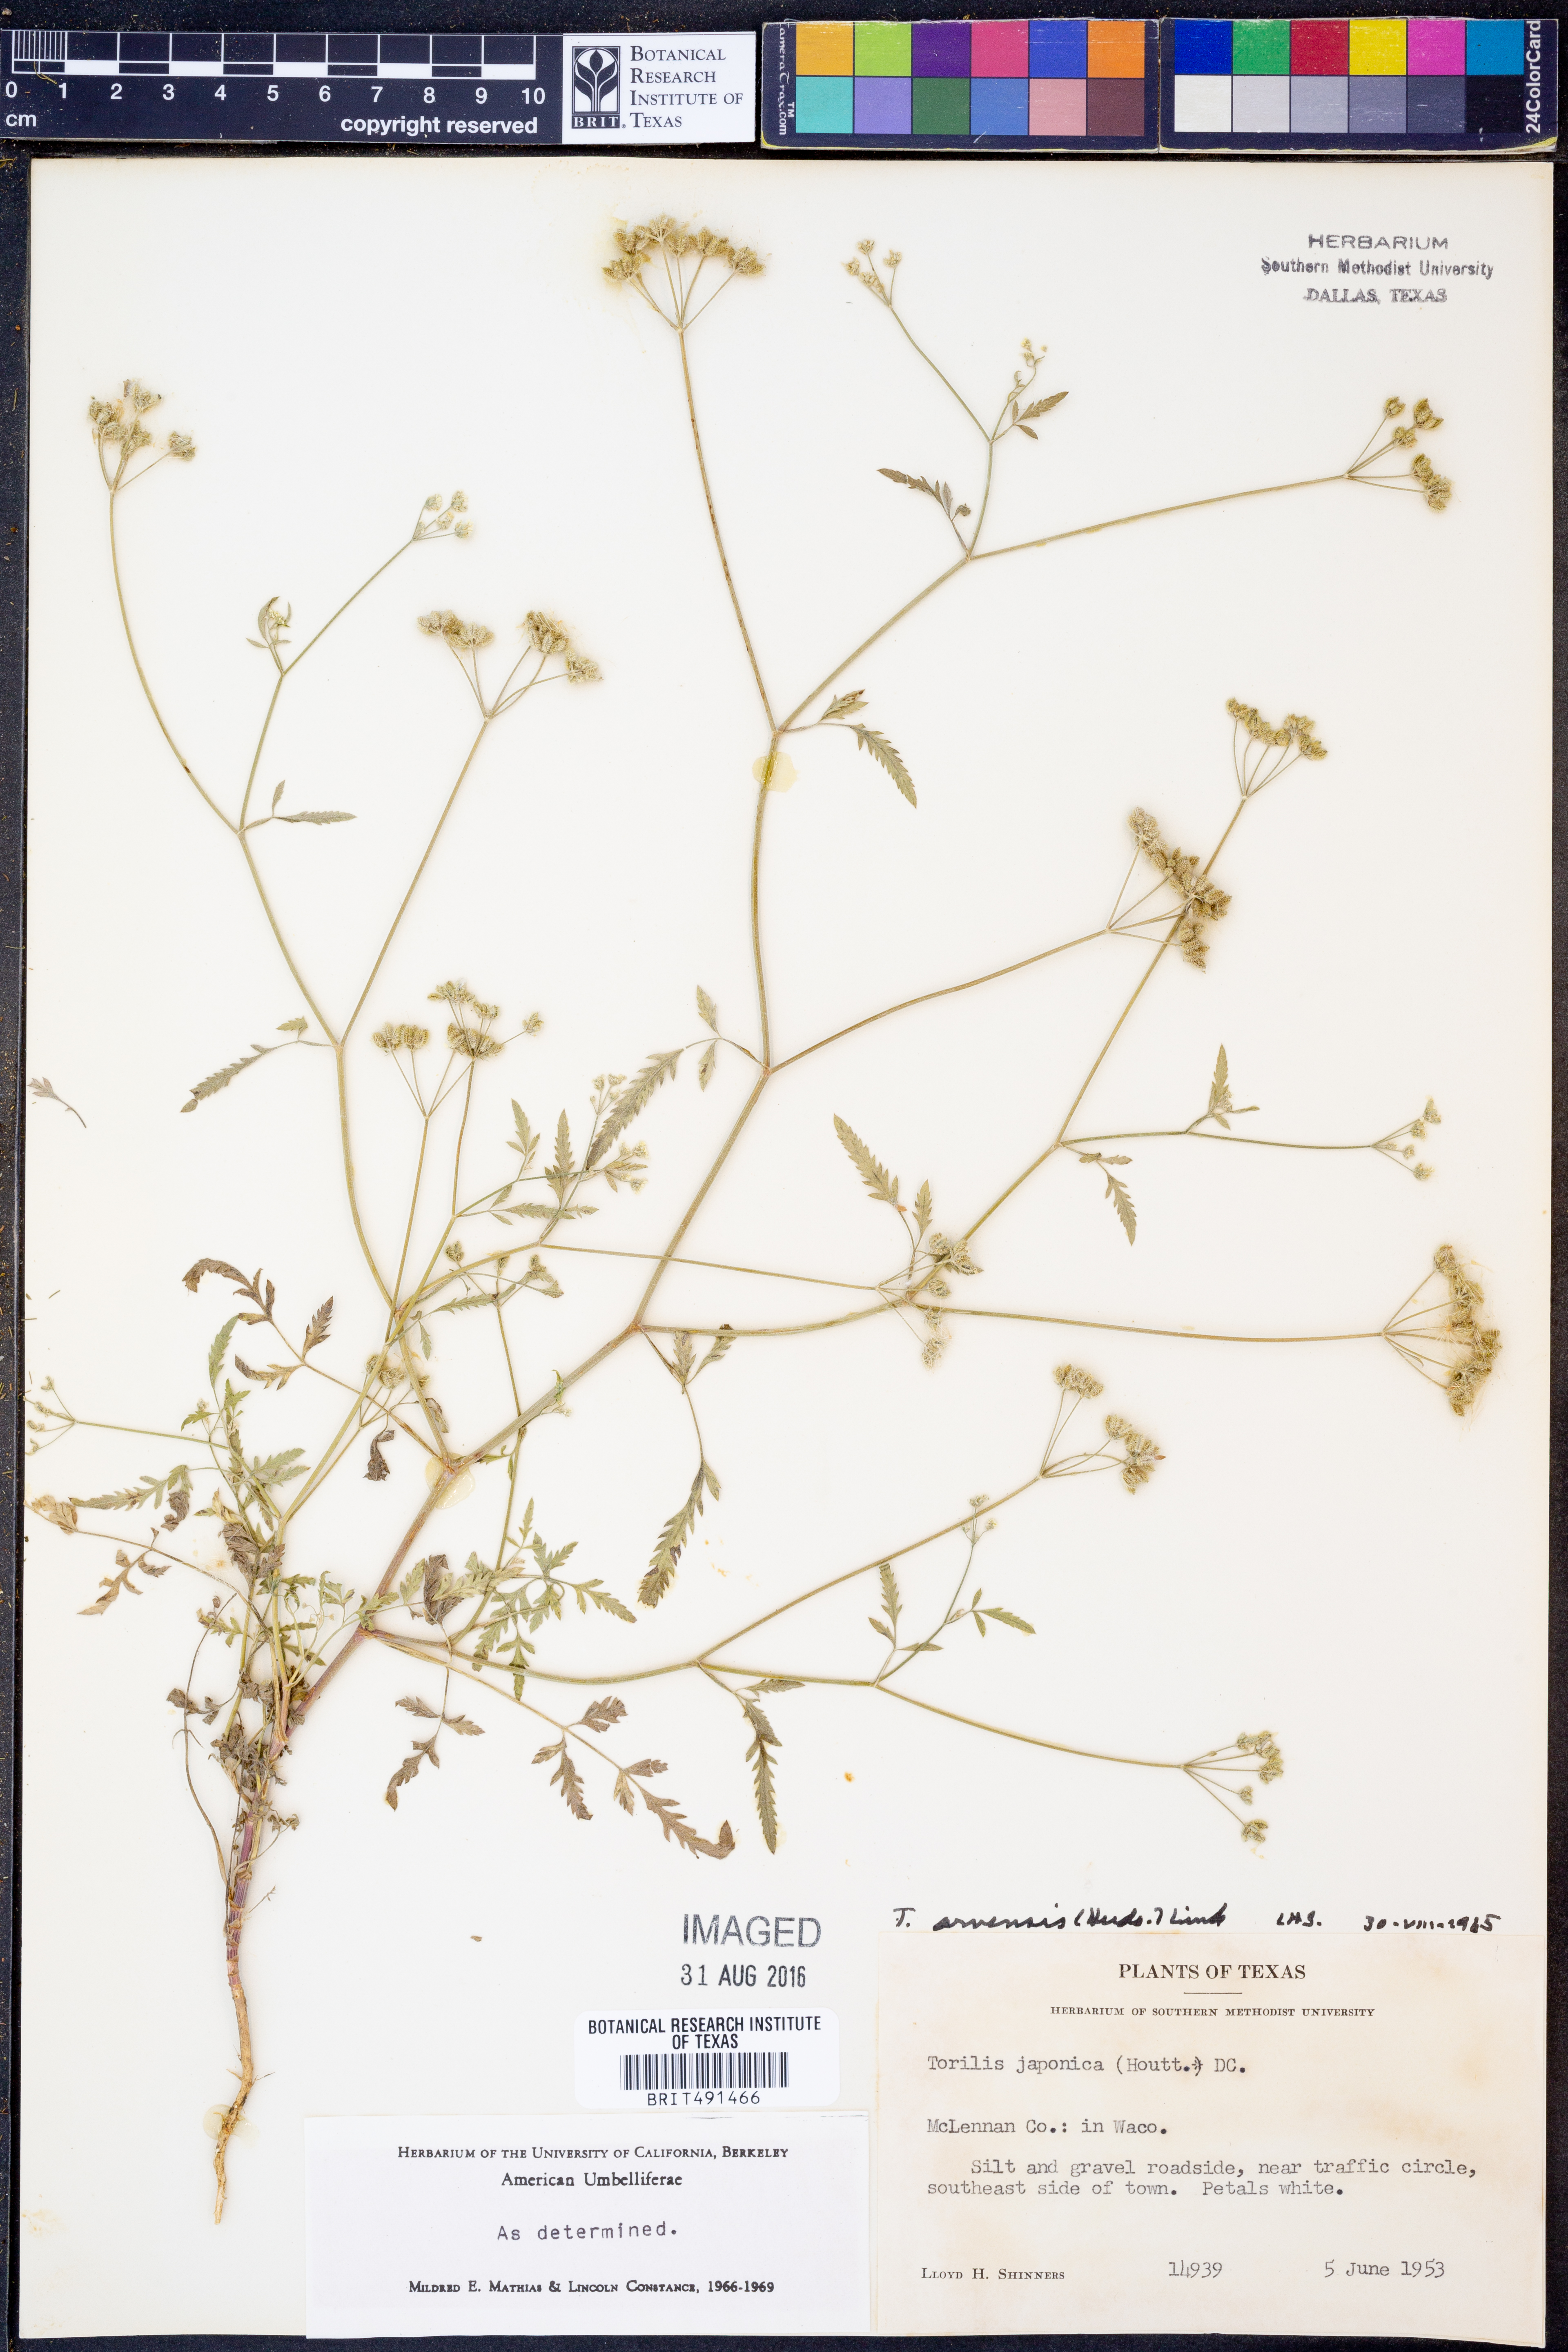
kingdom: Plantae
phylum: Tracheophyta
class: Magnoliopsida
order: Apiales
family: Apiaceae
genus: Torilis
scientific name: Torilis arvensis
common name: Spreading hedge-parsley
